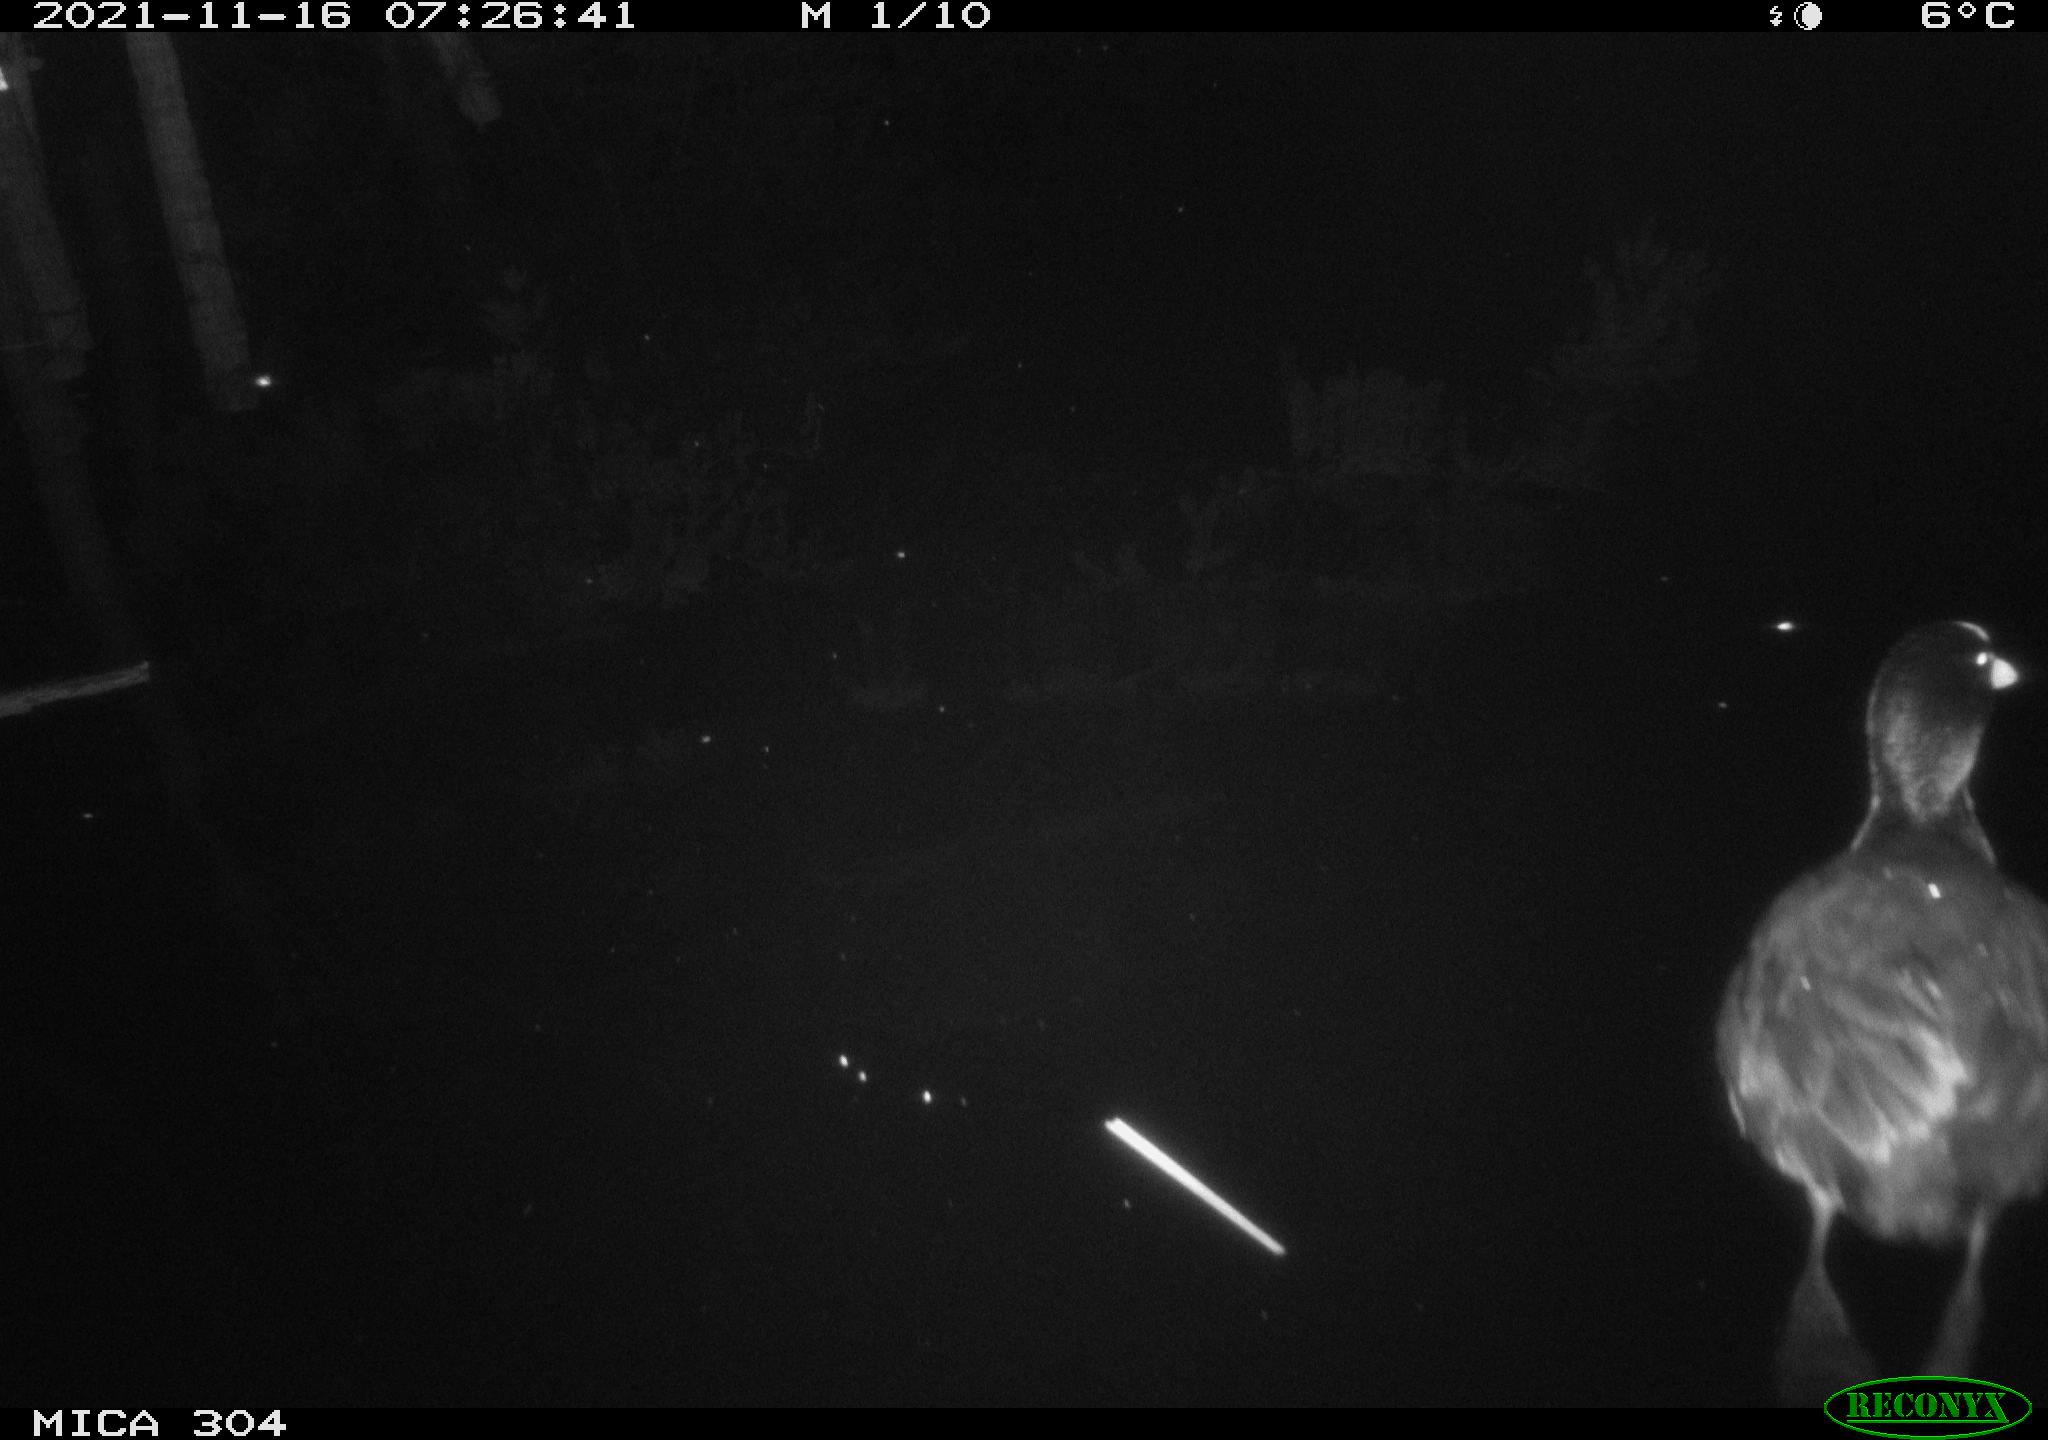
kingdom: Animalia
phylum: Chordata
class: Aves
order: Gruiformes
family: Rallidae
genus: Fulica
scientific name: Fulica atra
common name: Eurasian coot
